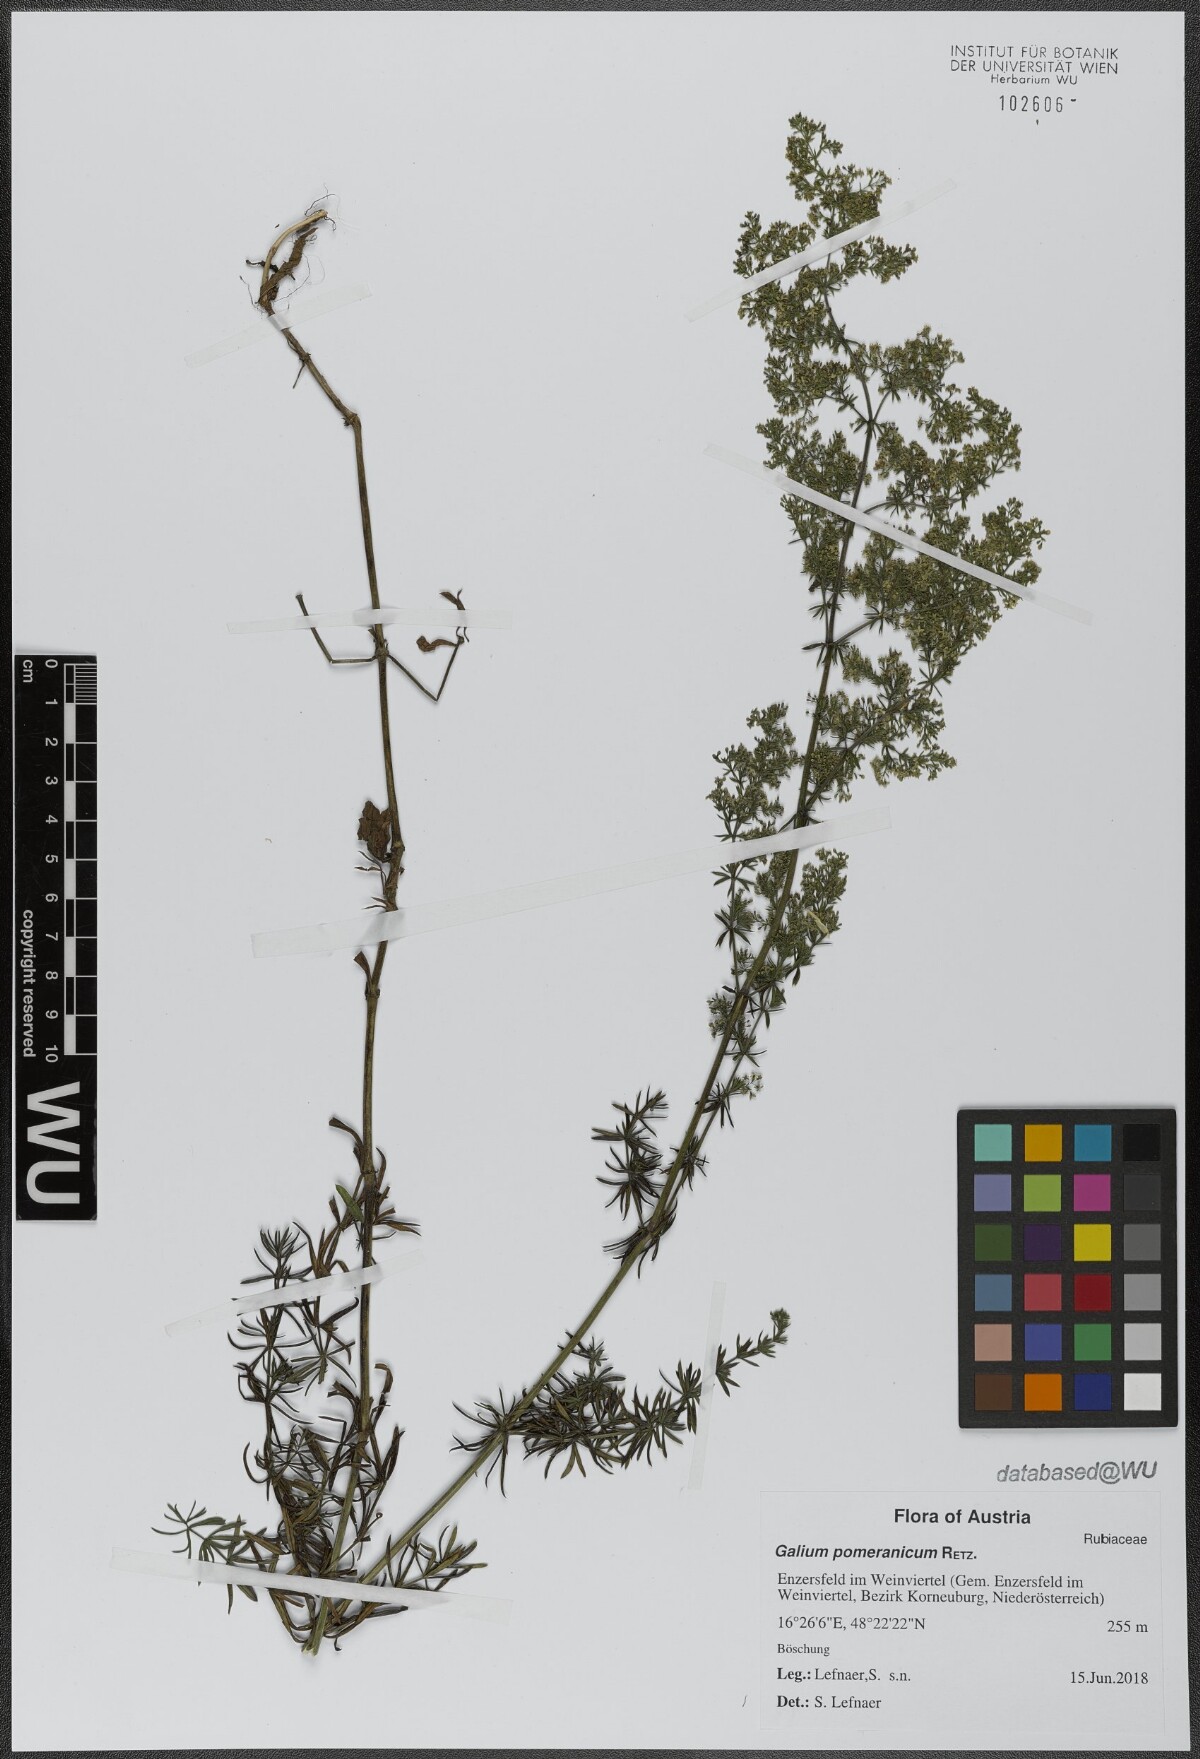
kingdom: Plantae
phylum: Tracheophyta
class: Magnoliopsida
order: Gentianales
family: Rubiaceae
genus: Galium
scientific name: Galium pomeranicum
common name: Bedstraw
